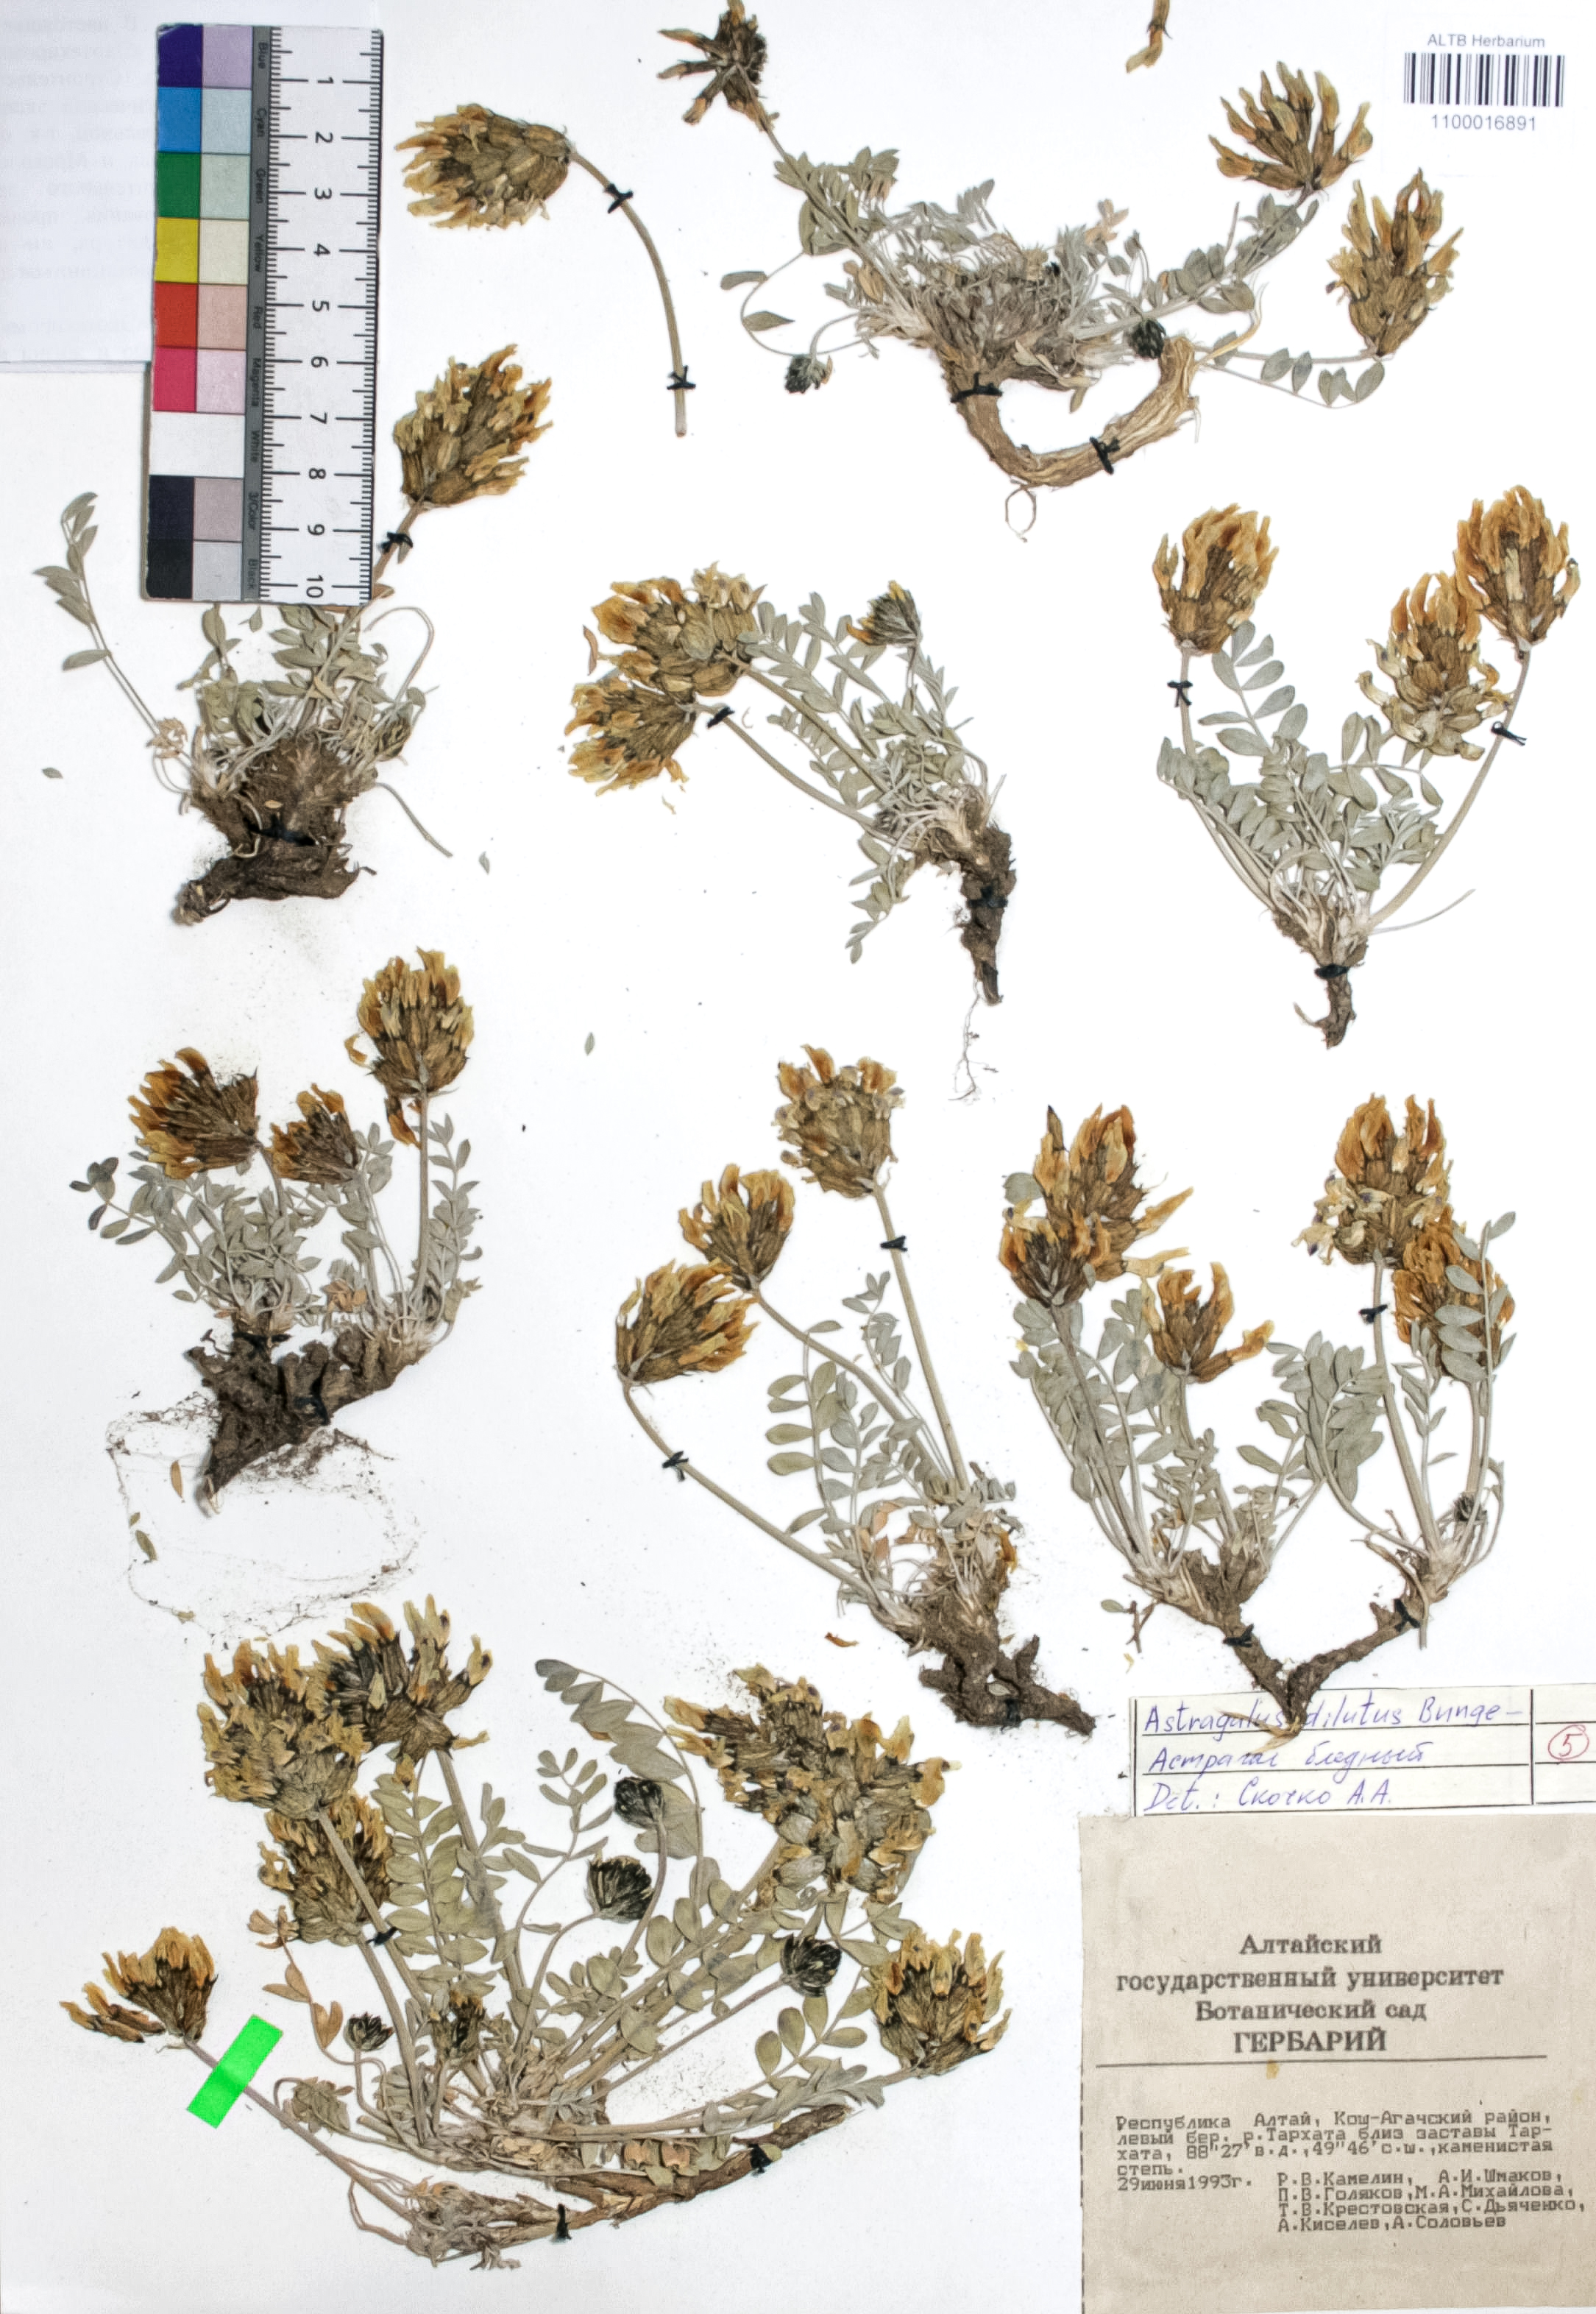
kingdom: Plantae
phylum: Tracheophyta
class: Magnoliopsida
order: Fabales
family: Fabaceae
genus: Astragalus
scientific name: Astragalus dilutus
